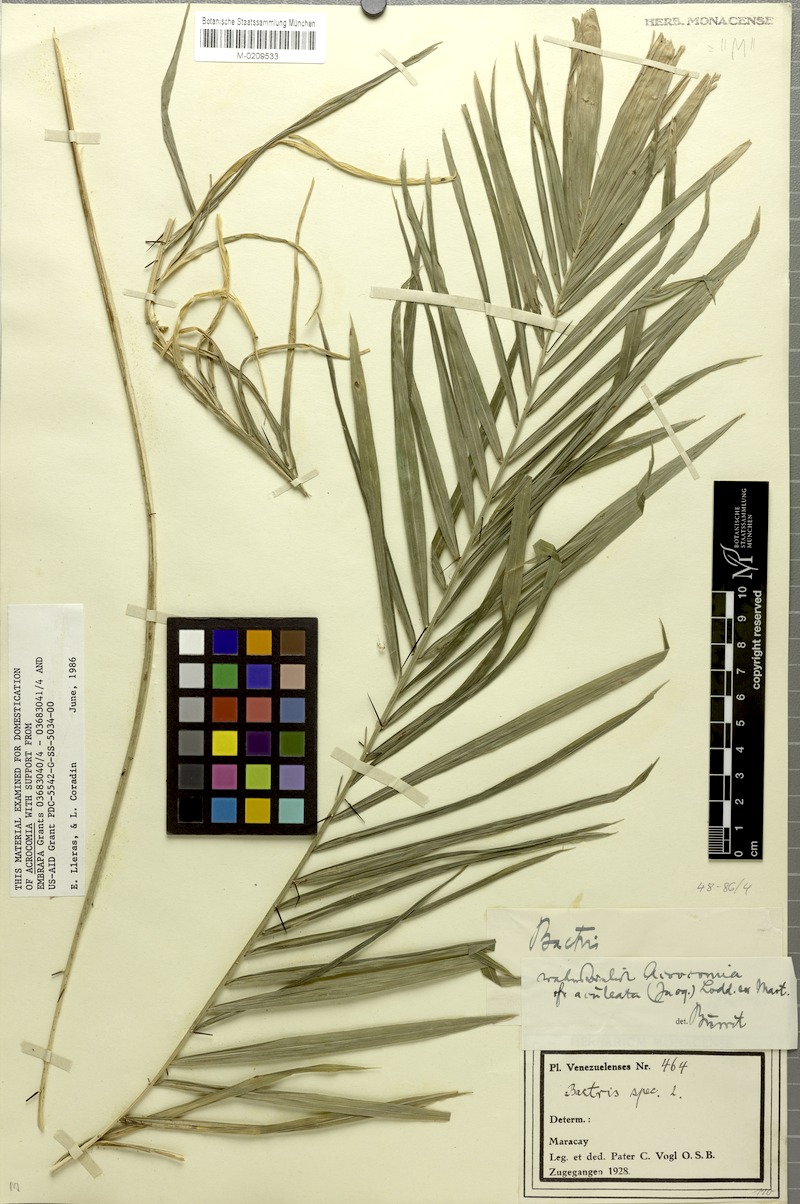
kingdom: Plantae
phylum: Tracheophyta
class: Liliopsida
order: Arecales
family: Arecaceae
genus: Acrocomia
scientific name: Acrocomia aculeata
